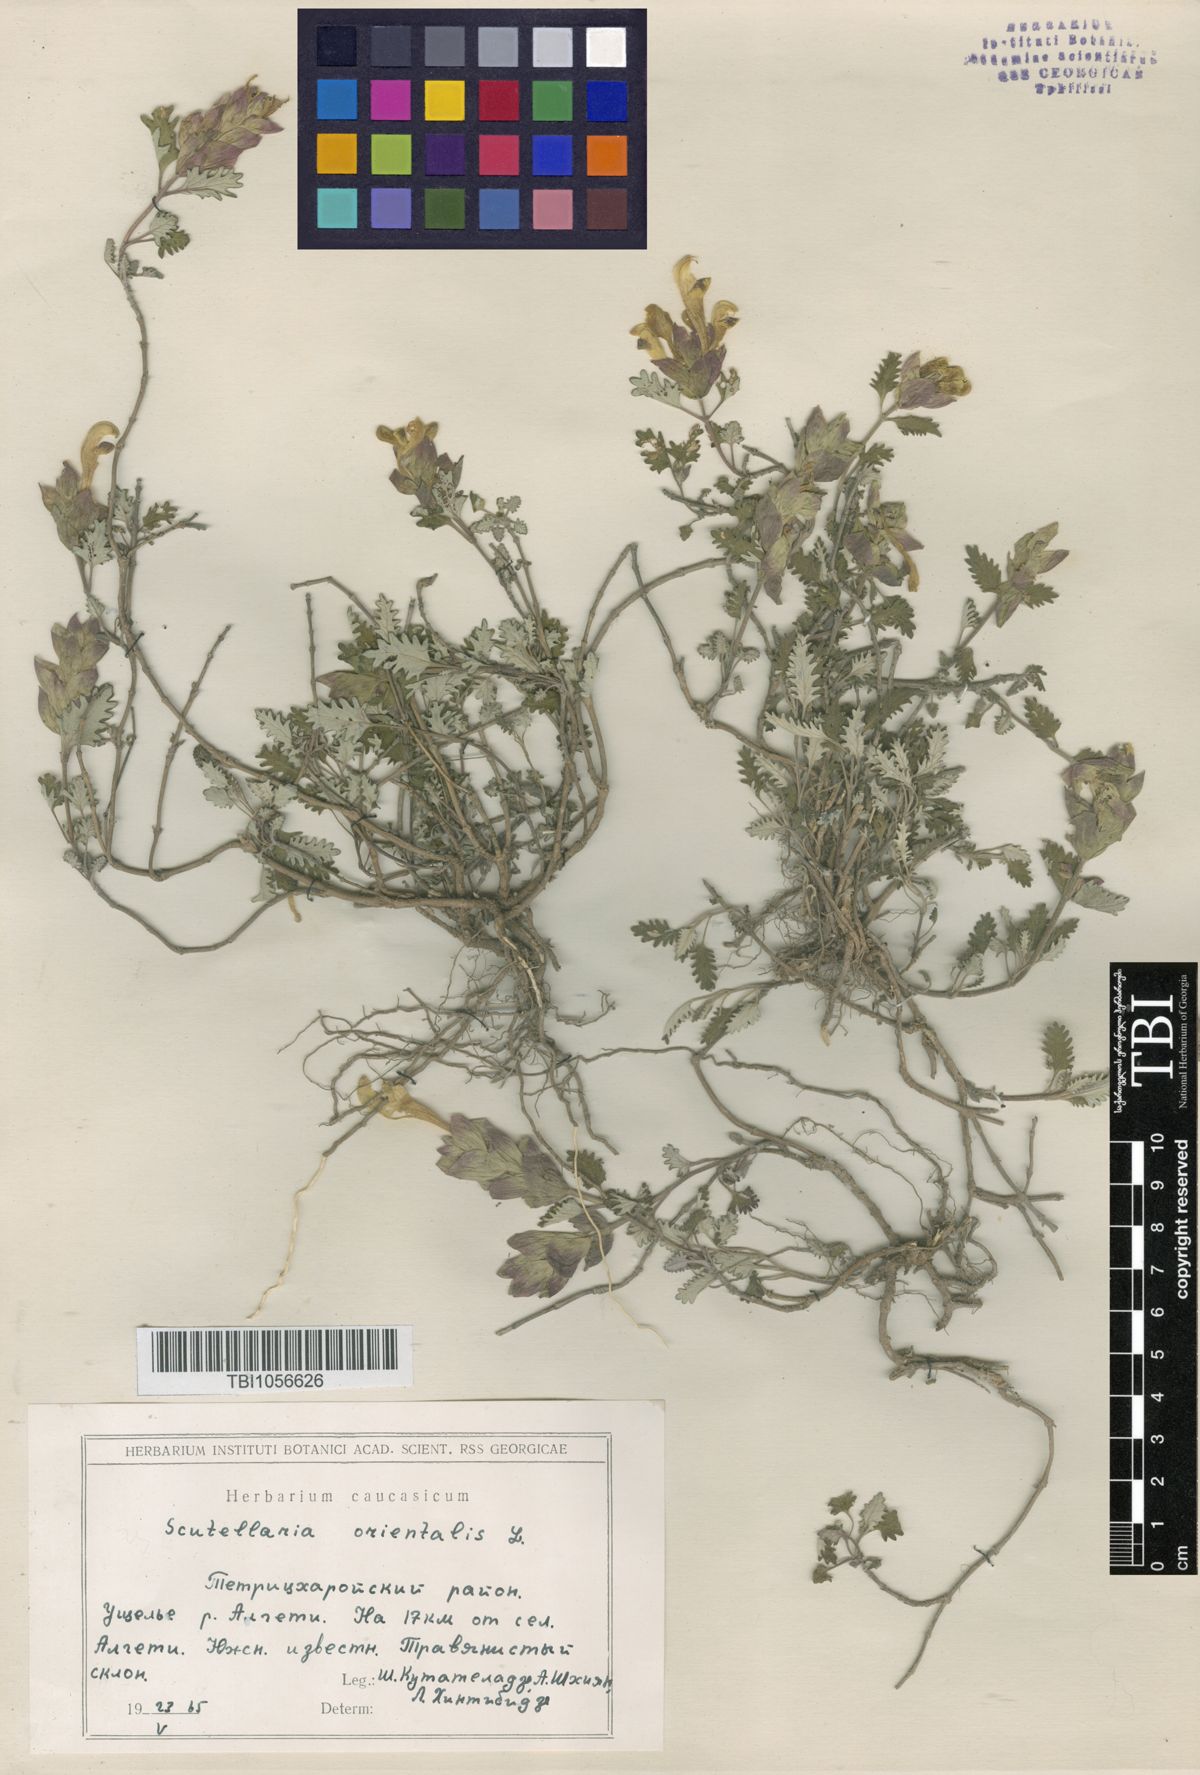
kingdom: Plantae
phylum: Tracheophyta
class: Magnoliopsida
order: Lamiales
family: Lamiaceae
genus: Scutellaria
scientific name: Scutellaria orientalis
